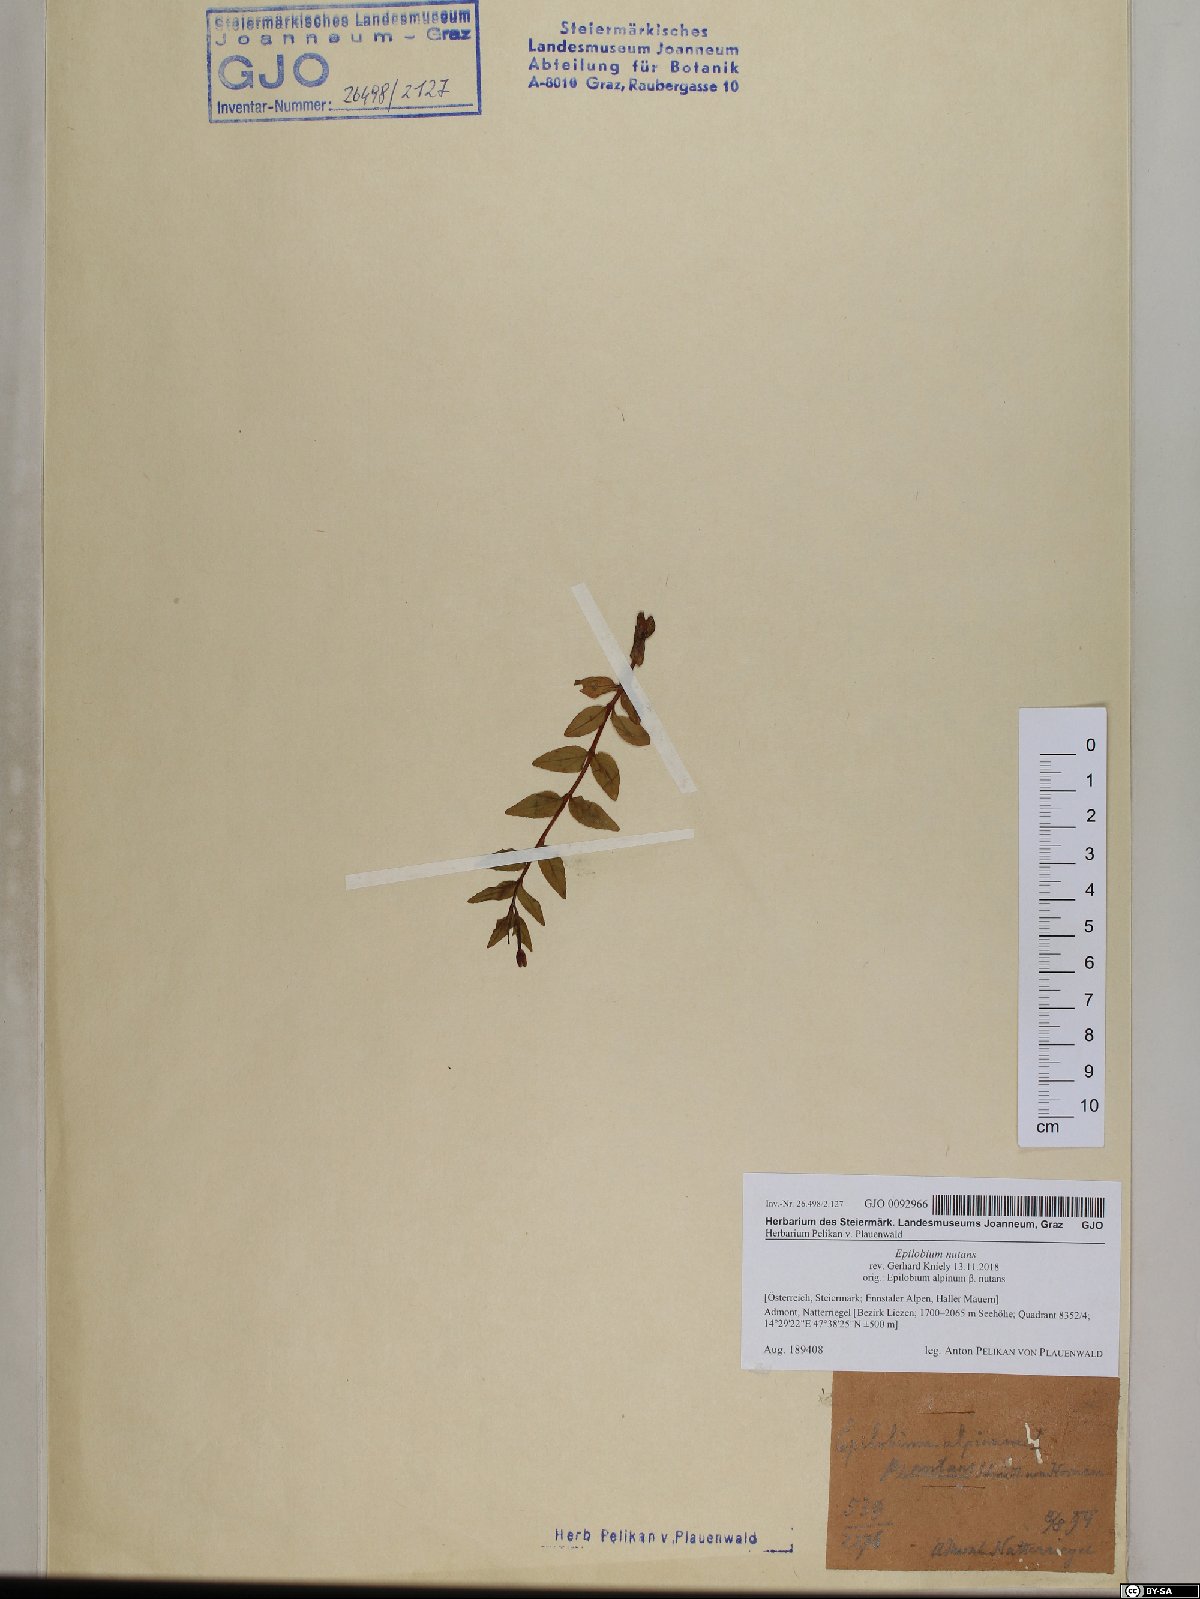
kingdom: Plantae
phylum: Tracheophyta
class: Magnoliopsida
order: Myrtales
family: Onagraceae
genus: Epilobium
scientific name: Epilobium nutans
